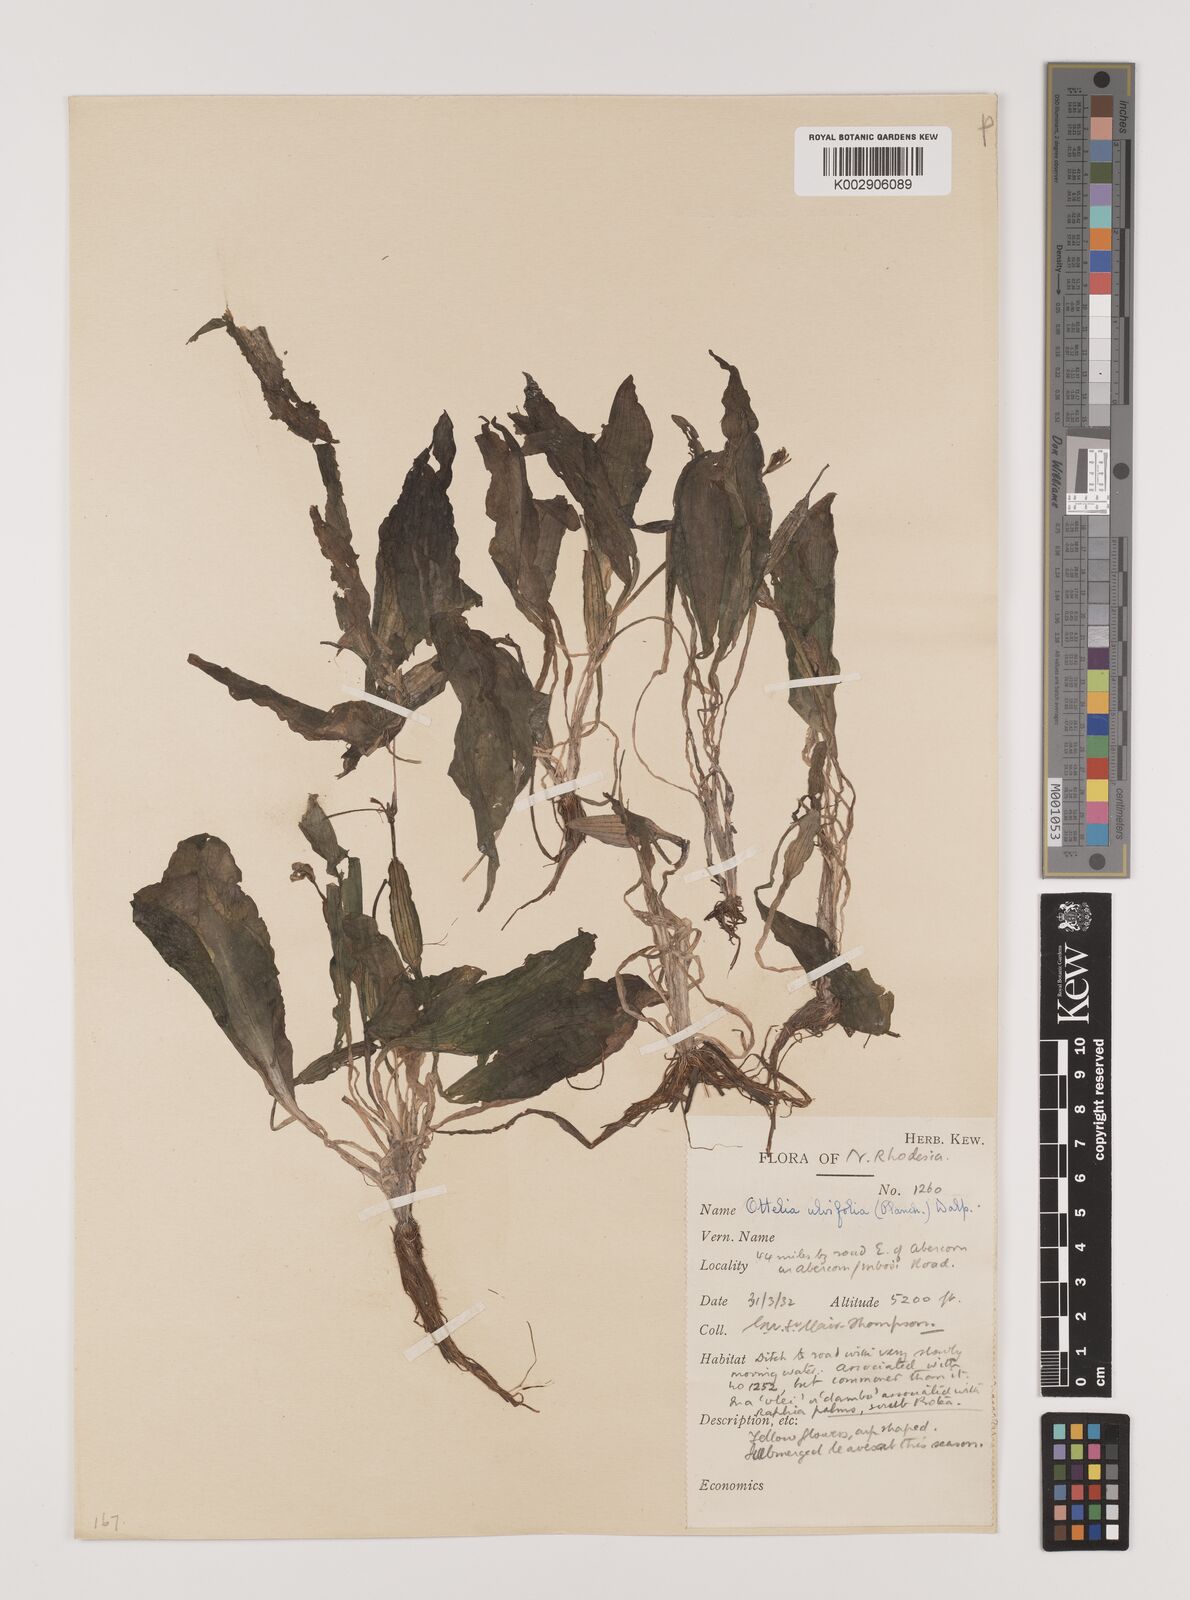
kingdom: Plantae
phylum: Tracheophyta
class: Liliopsida
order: Alismatales
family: Hydrocharitaceae
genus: Ottelia
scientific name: Ottelia ulvifolia
